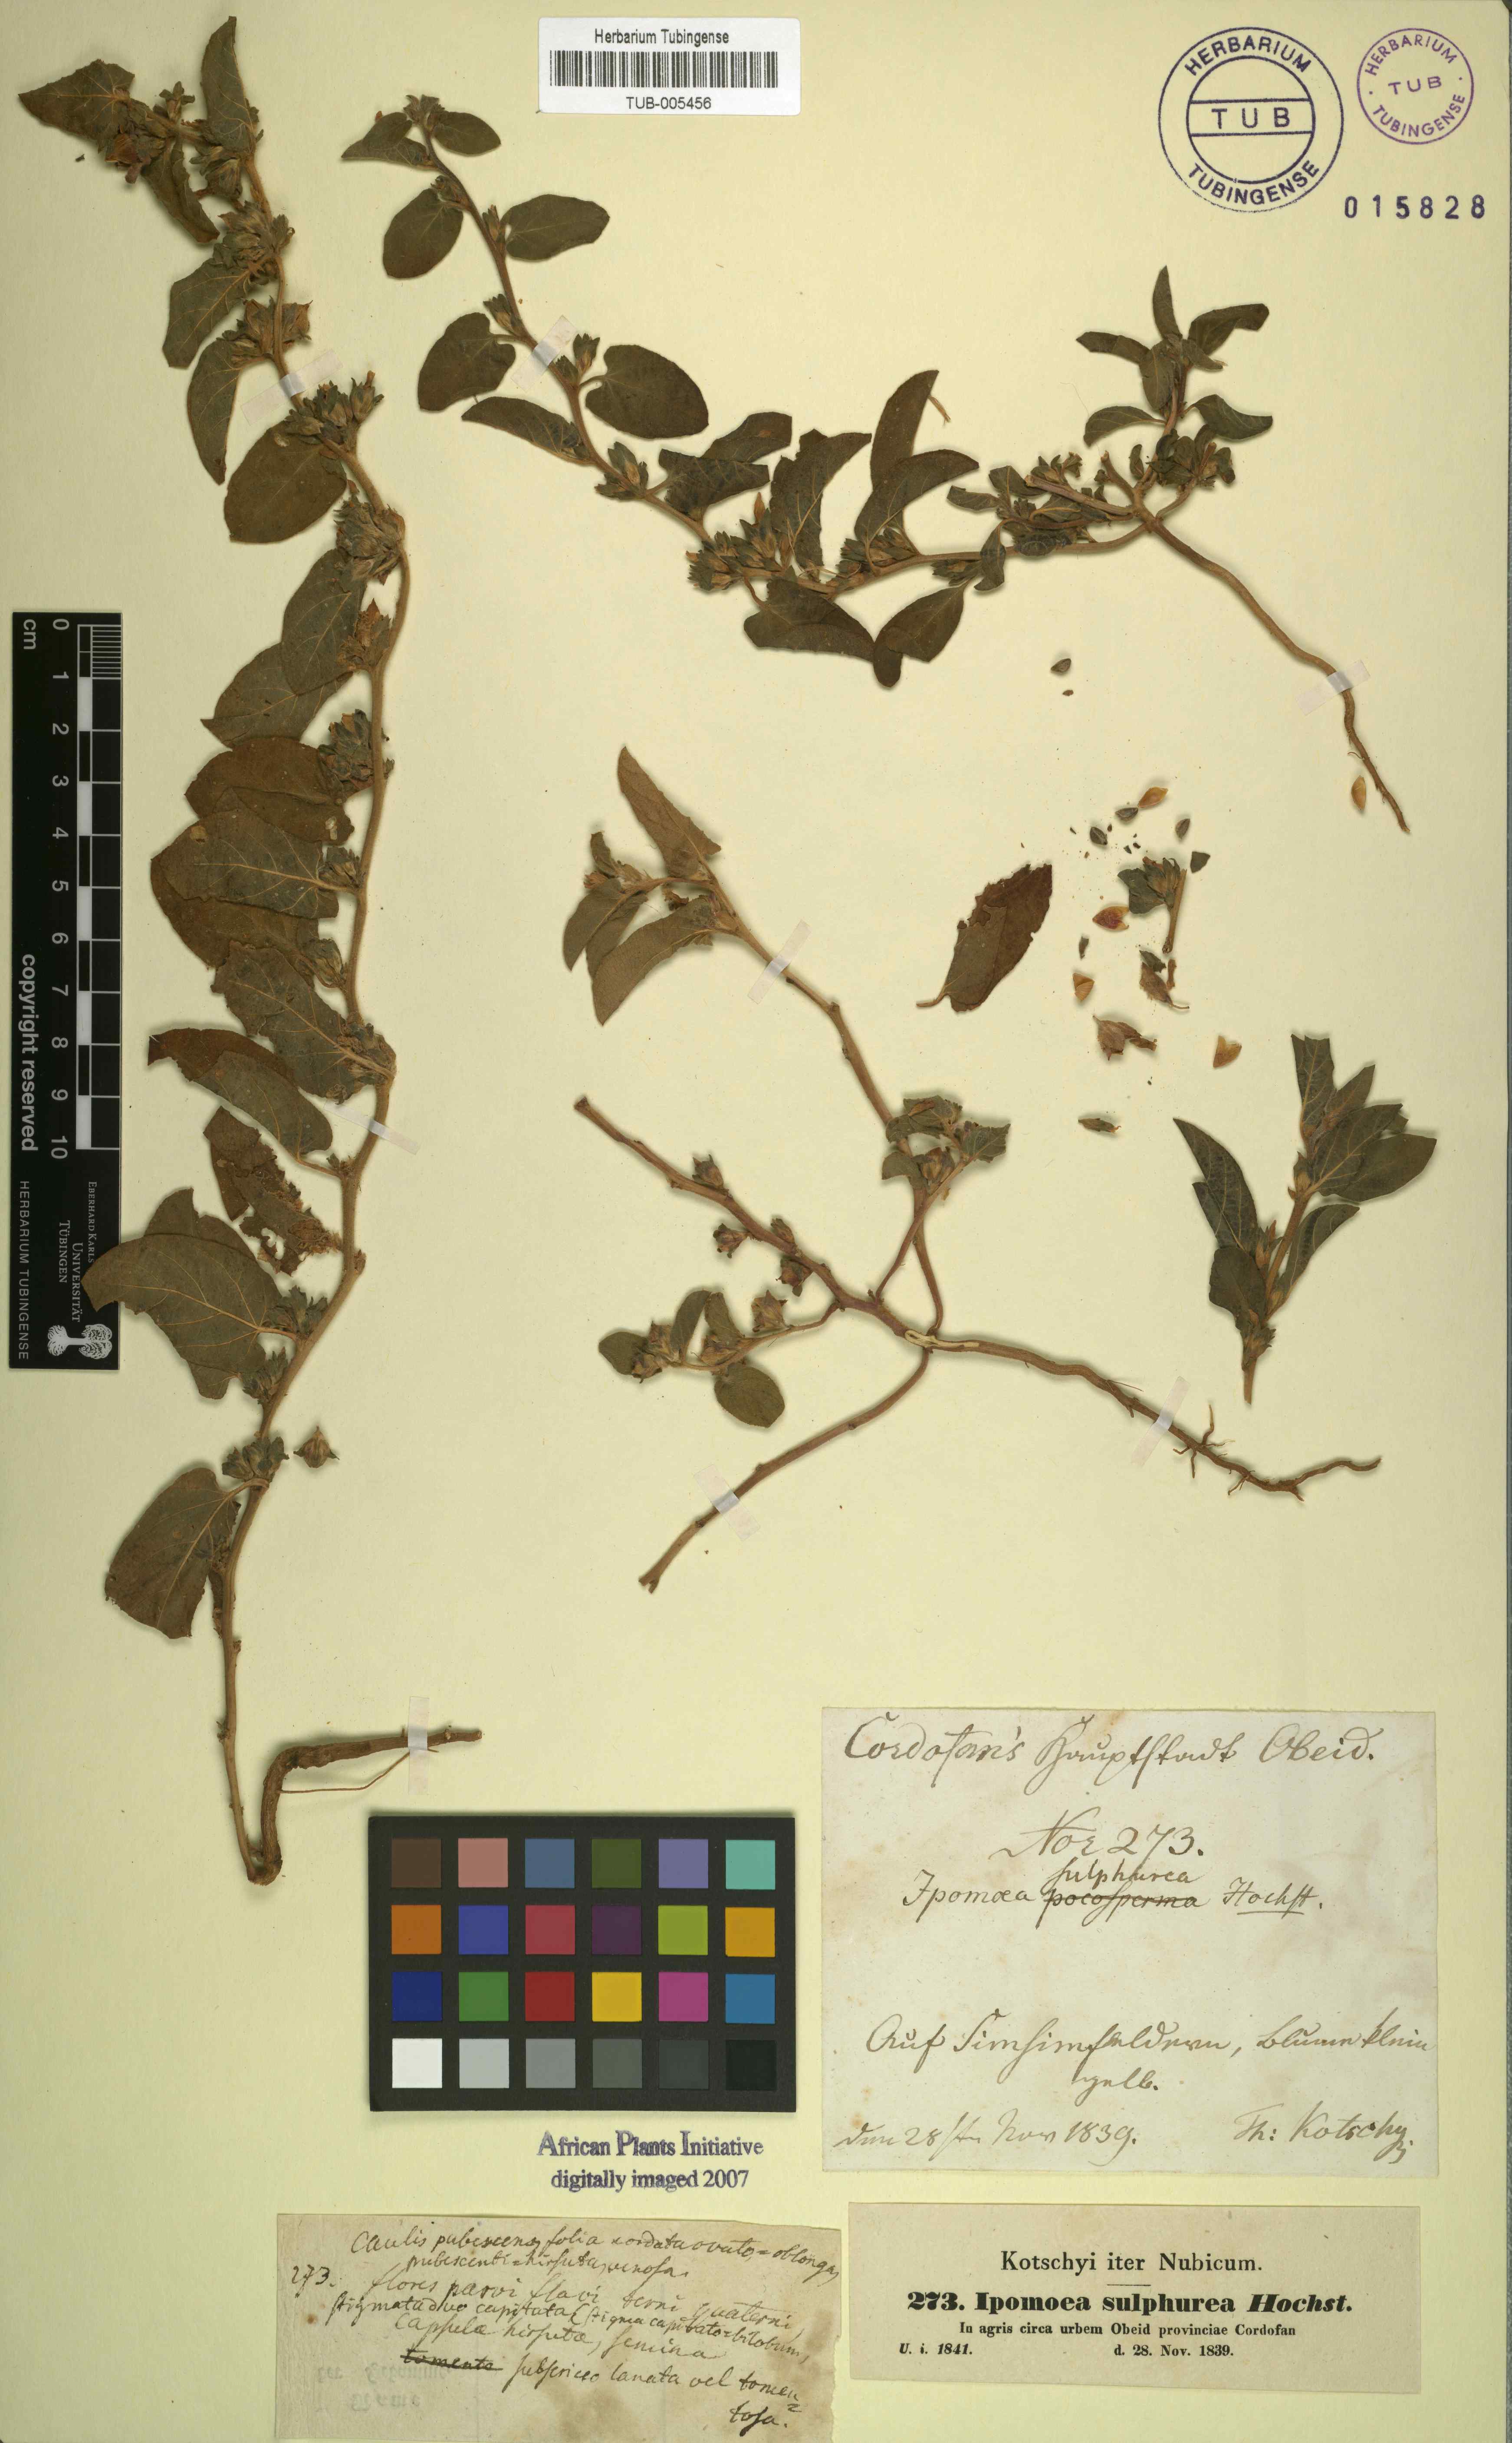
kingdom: Plantae
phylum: Tracheophyta
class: Magnoliopsida
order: Solanales
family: Convolvulaceae
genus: Ipomoea
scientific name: Ipomoea vagans
